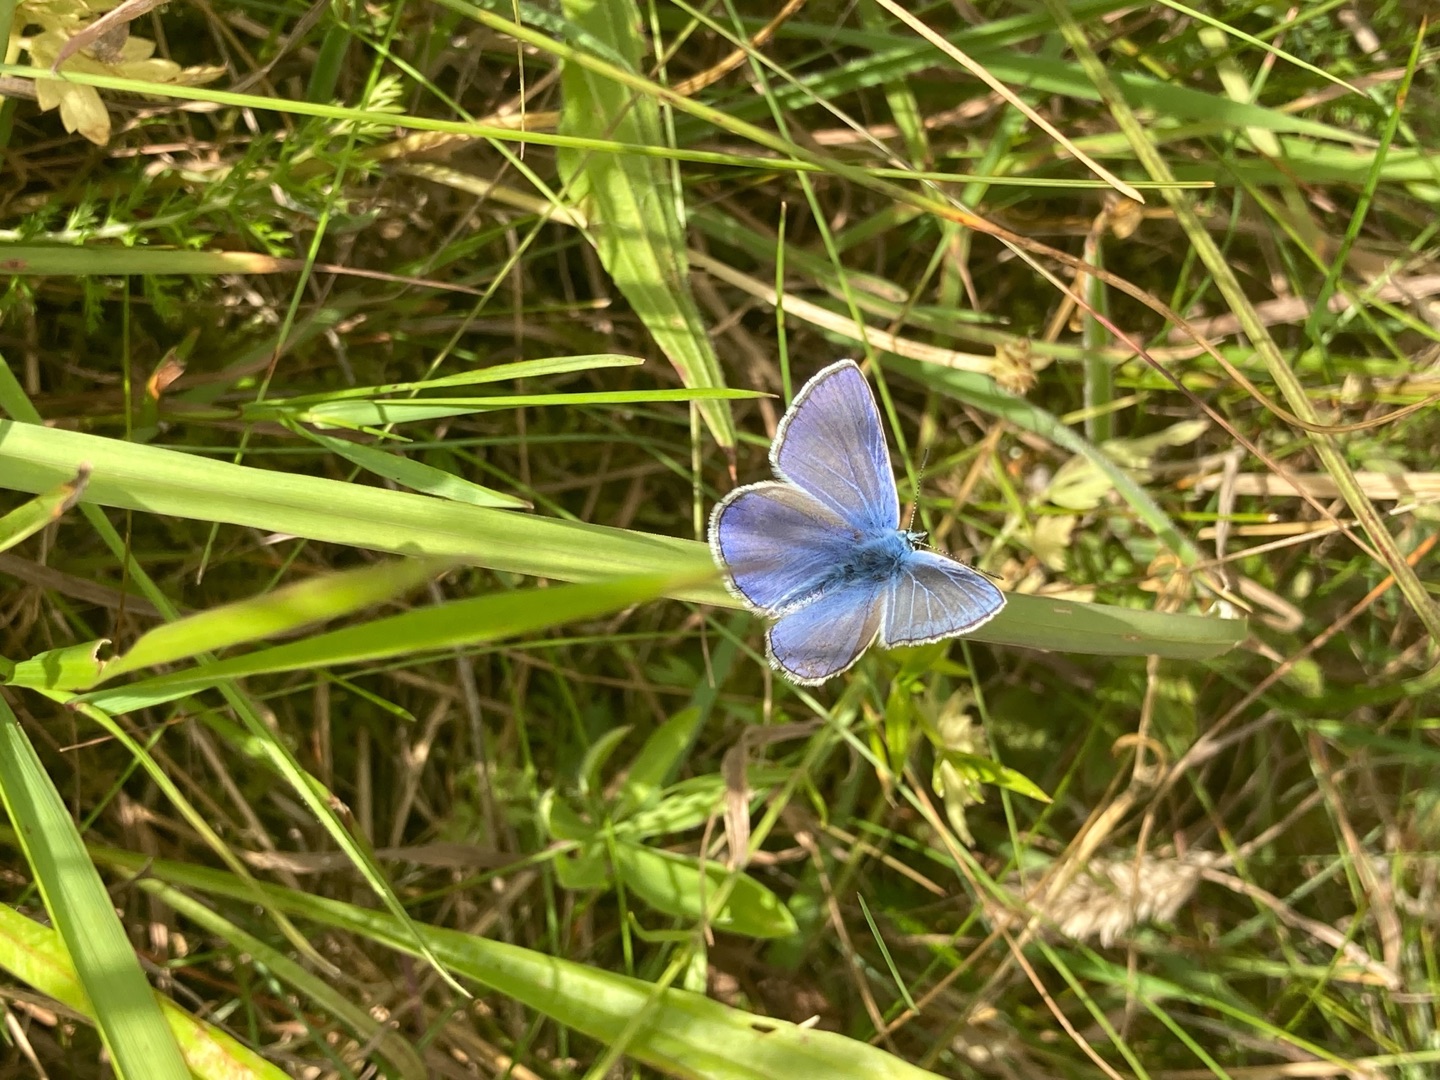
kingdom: Animalia
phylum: Arthropoda
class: Insecta
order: Lepidoptera
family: Lycaenidae
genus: Polyommatus
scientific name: Polyommatus icarus
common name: Almindelig blåfugl
